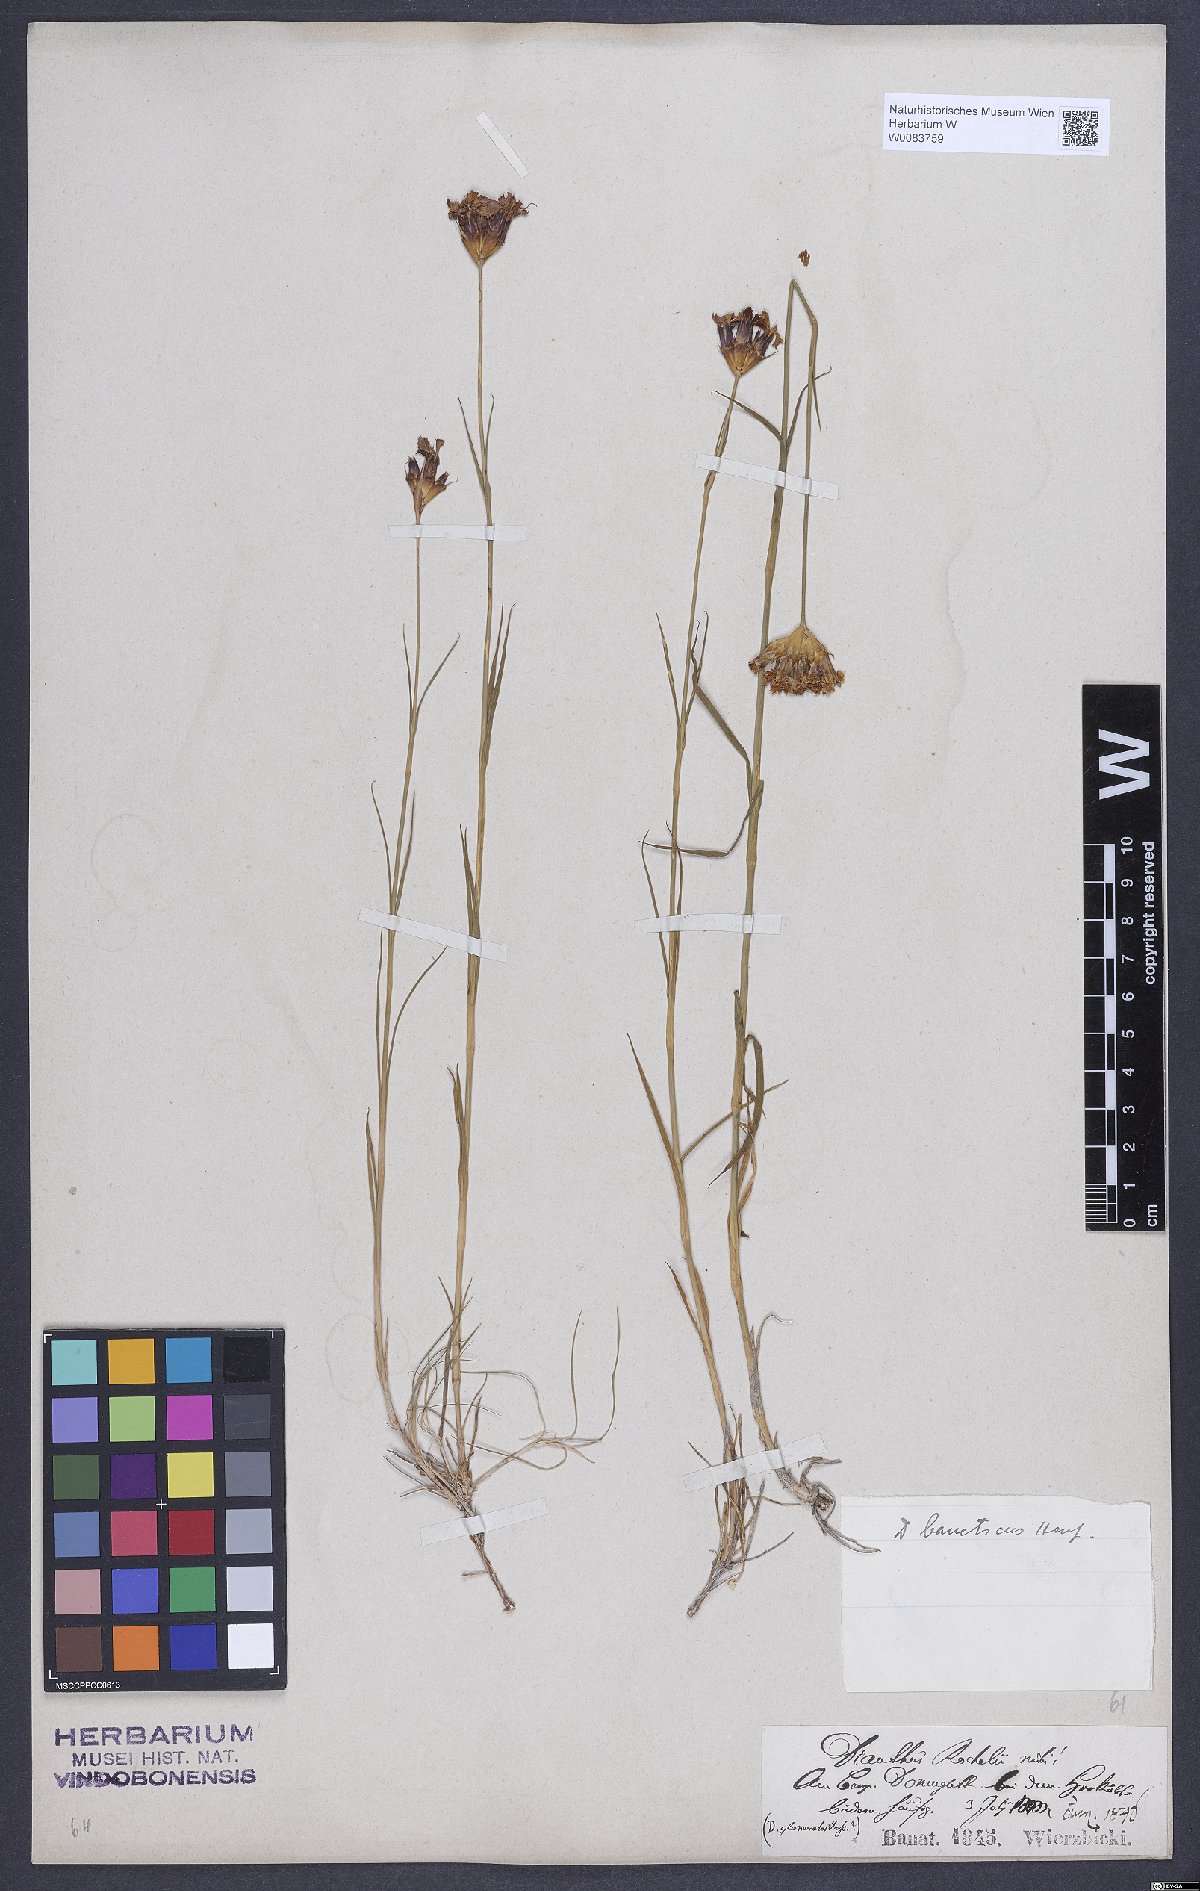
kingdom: Plantae
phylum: Tracheophyta
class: Magnoliopsida
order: Caryophyllales
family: Caryophyllaceae
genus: Dianthus
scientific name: Dianthus giganteus
